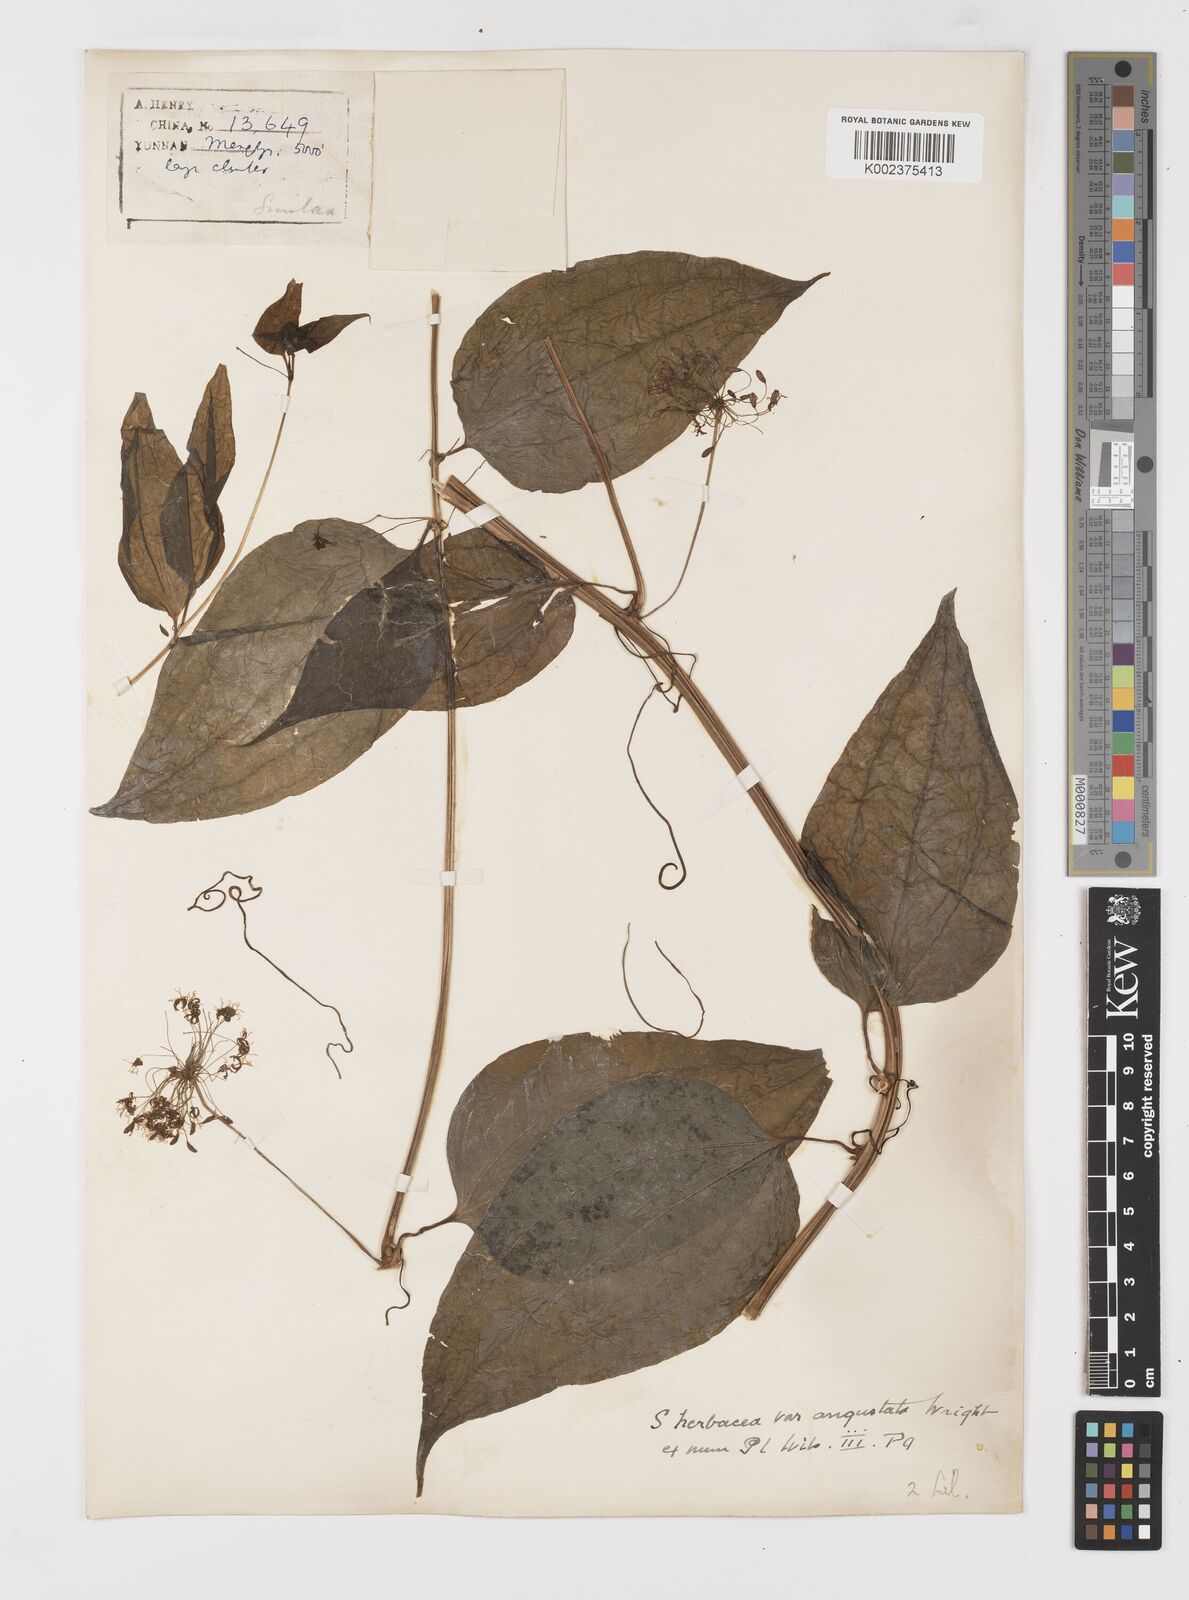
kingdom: Plantae
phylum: Tracheophyta
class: Liliopsida
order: Liliales
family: Smilacaceae
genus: Smilax
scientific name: Smilax herbacea
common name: Jacob's-ladder
